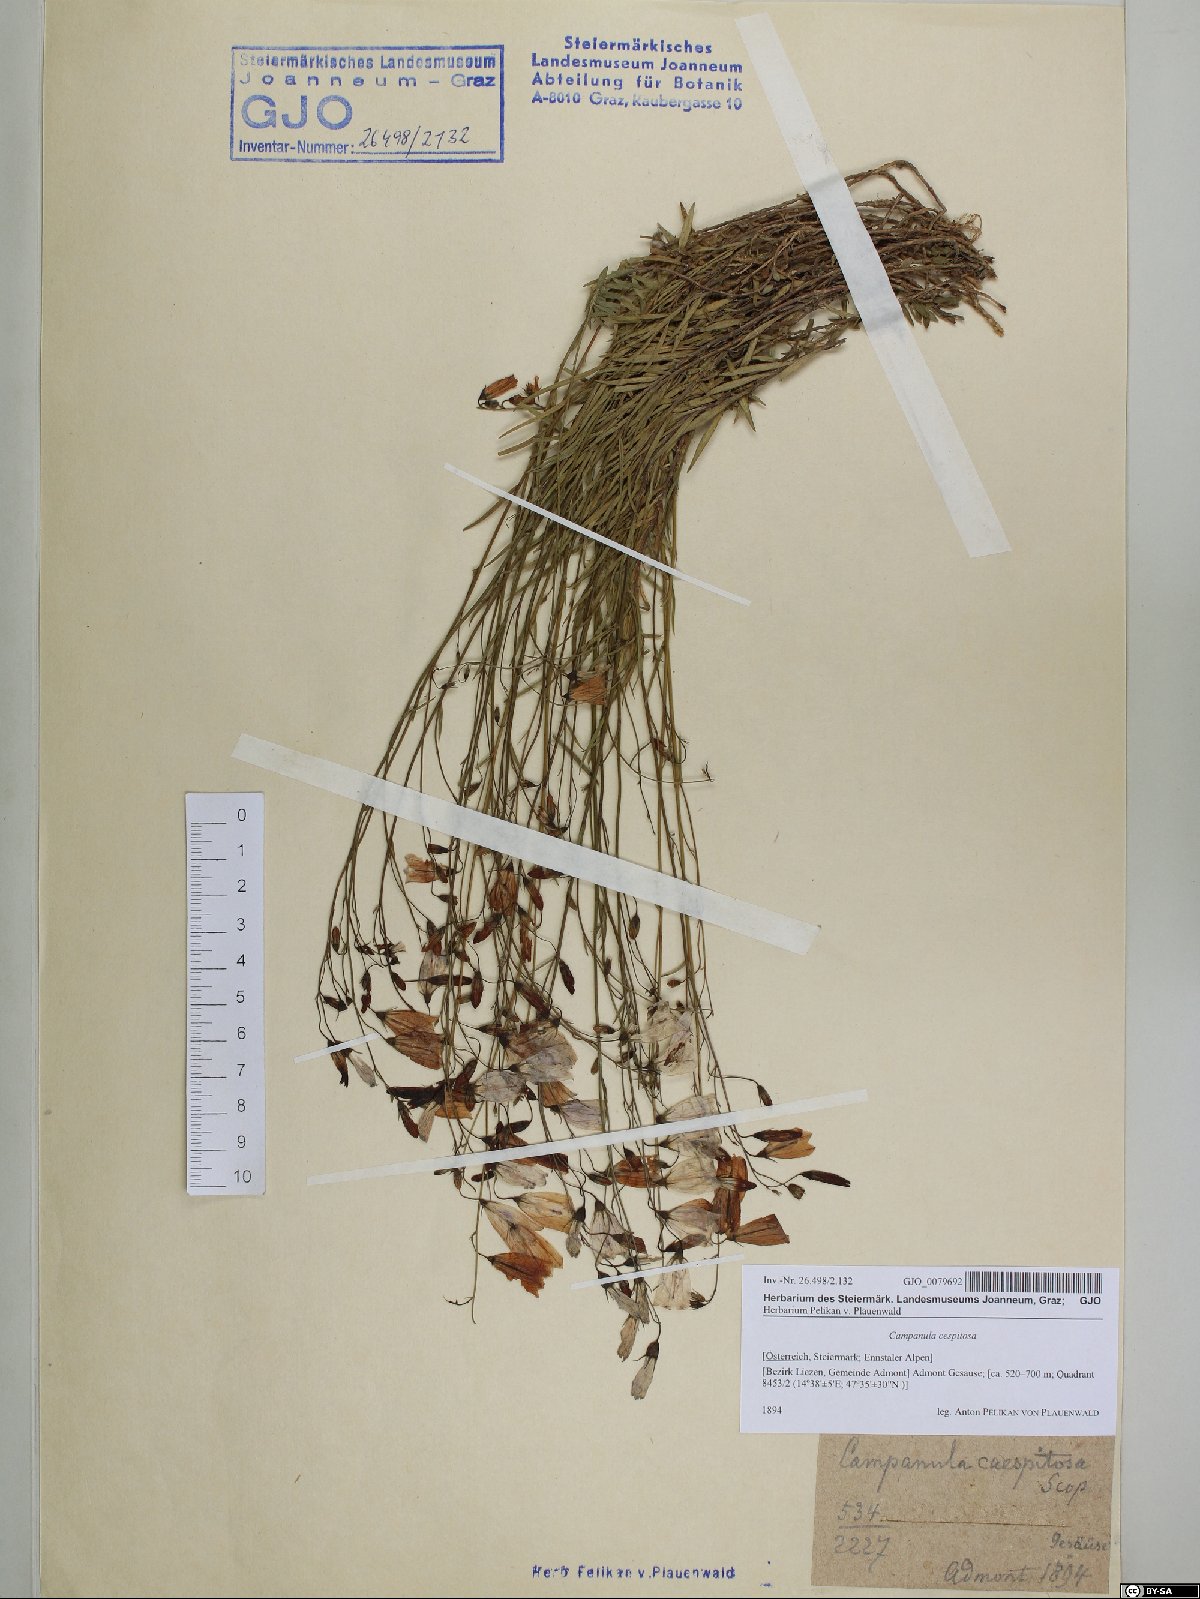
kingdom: Plantae
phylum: Tracheophyta
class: Magnoliopsida
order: Asterales
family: Campanulaceae
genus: Campanula
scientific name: Campanula cespitosa
